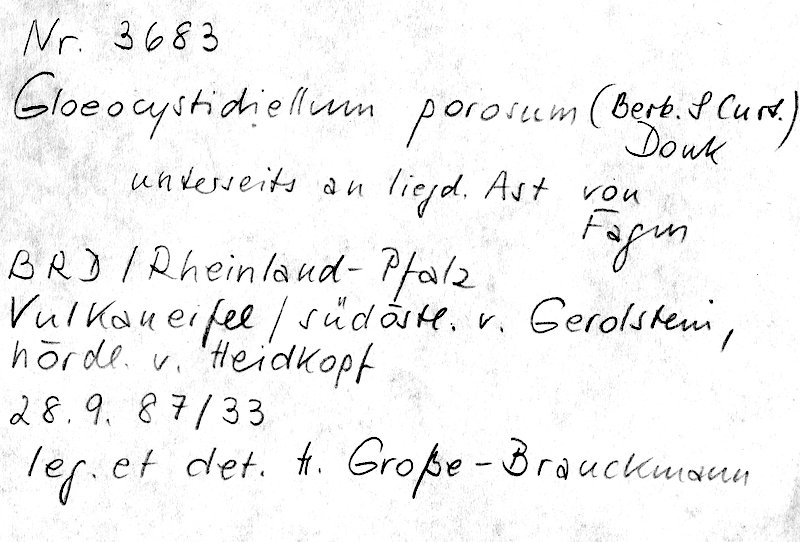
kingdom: Plantae
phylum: Tracheophyta
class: Magnoliopsida
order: Fagales
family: Fagaceae
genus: Fagus
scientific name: Fagus sylvatica
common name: Beech
